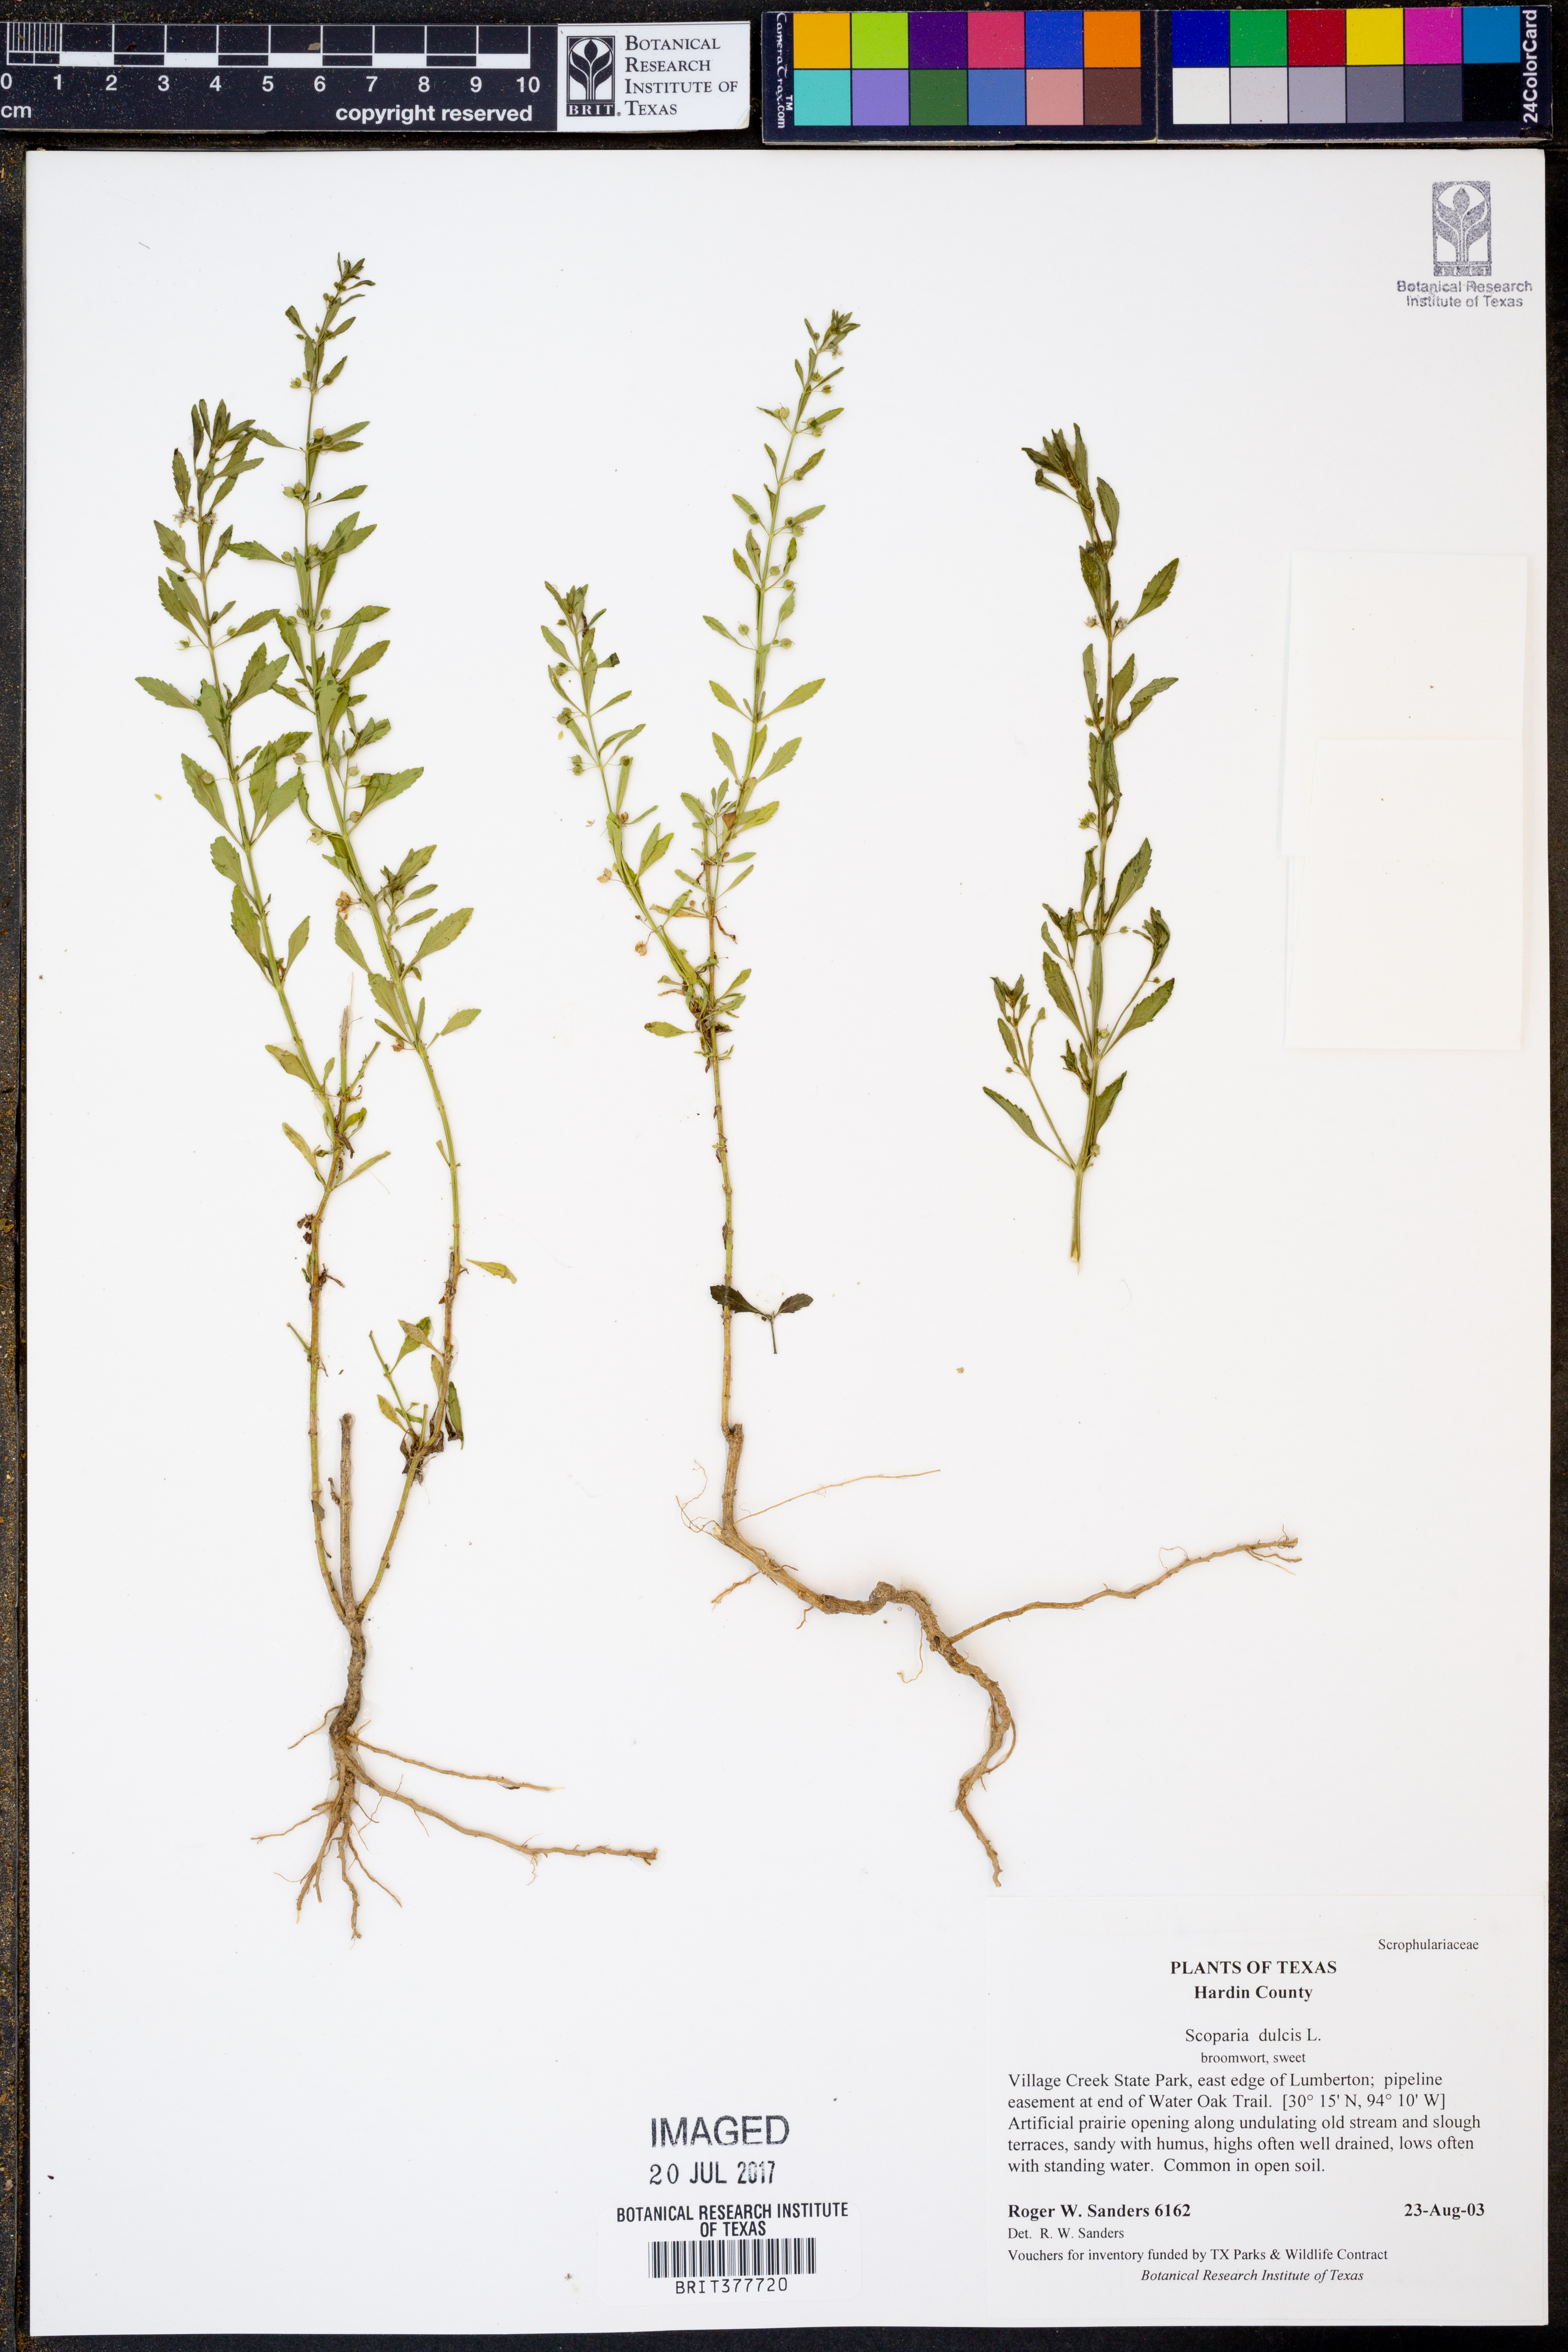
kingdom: Plantae
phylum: Tracheophyta
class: Magnoliopsida
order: Lamiales
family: Plantaginaceae
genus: Scoparia
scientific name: Scoparia dulcis
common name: Scoparia-weed
